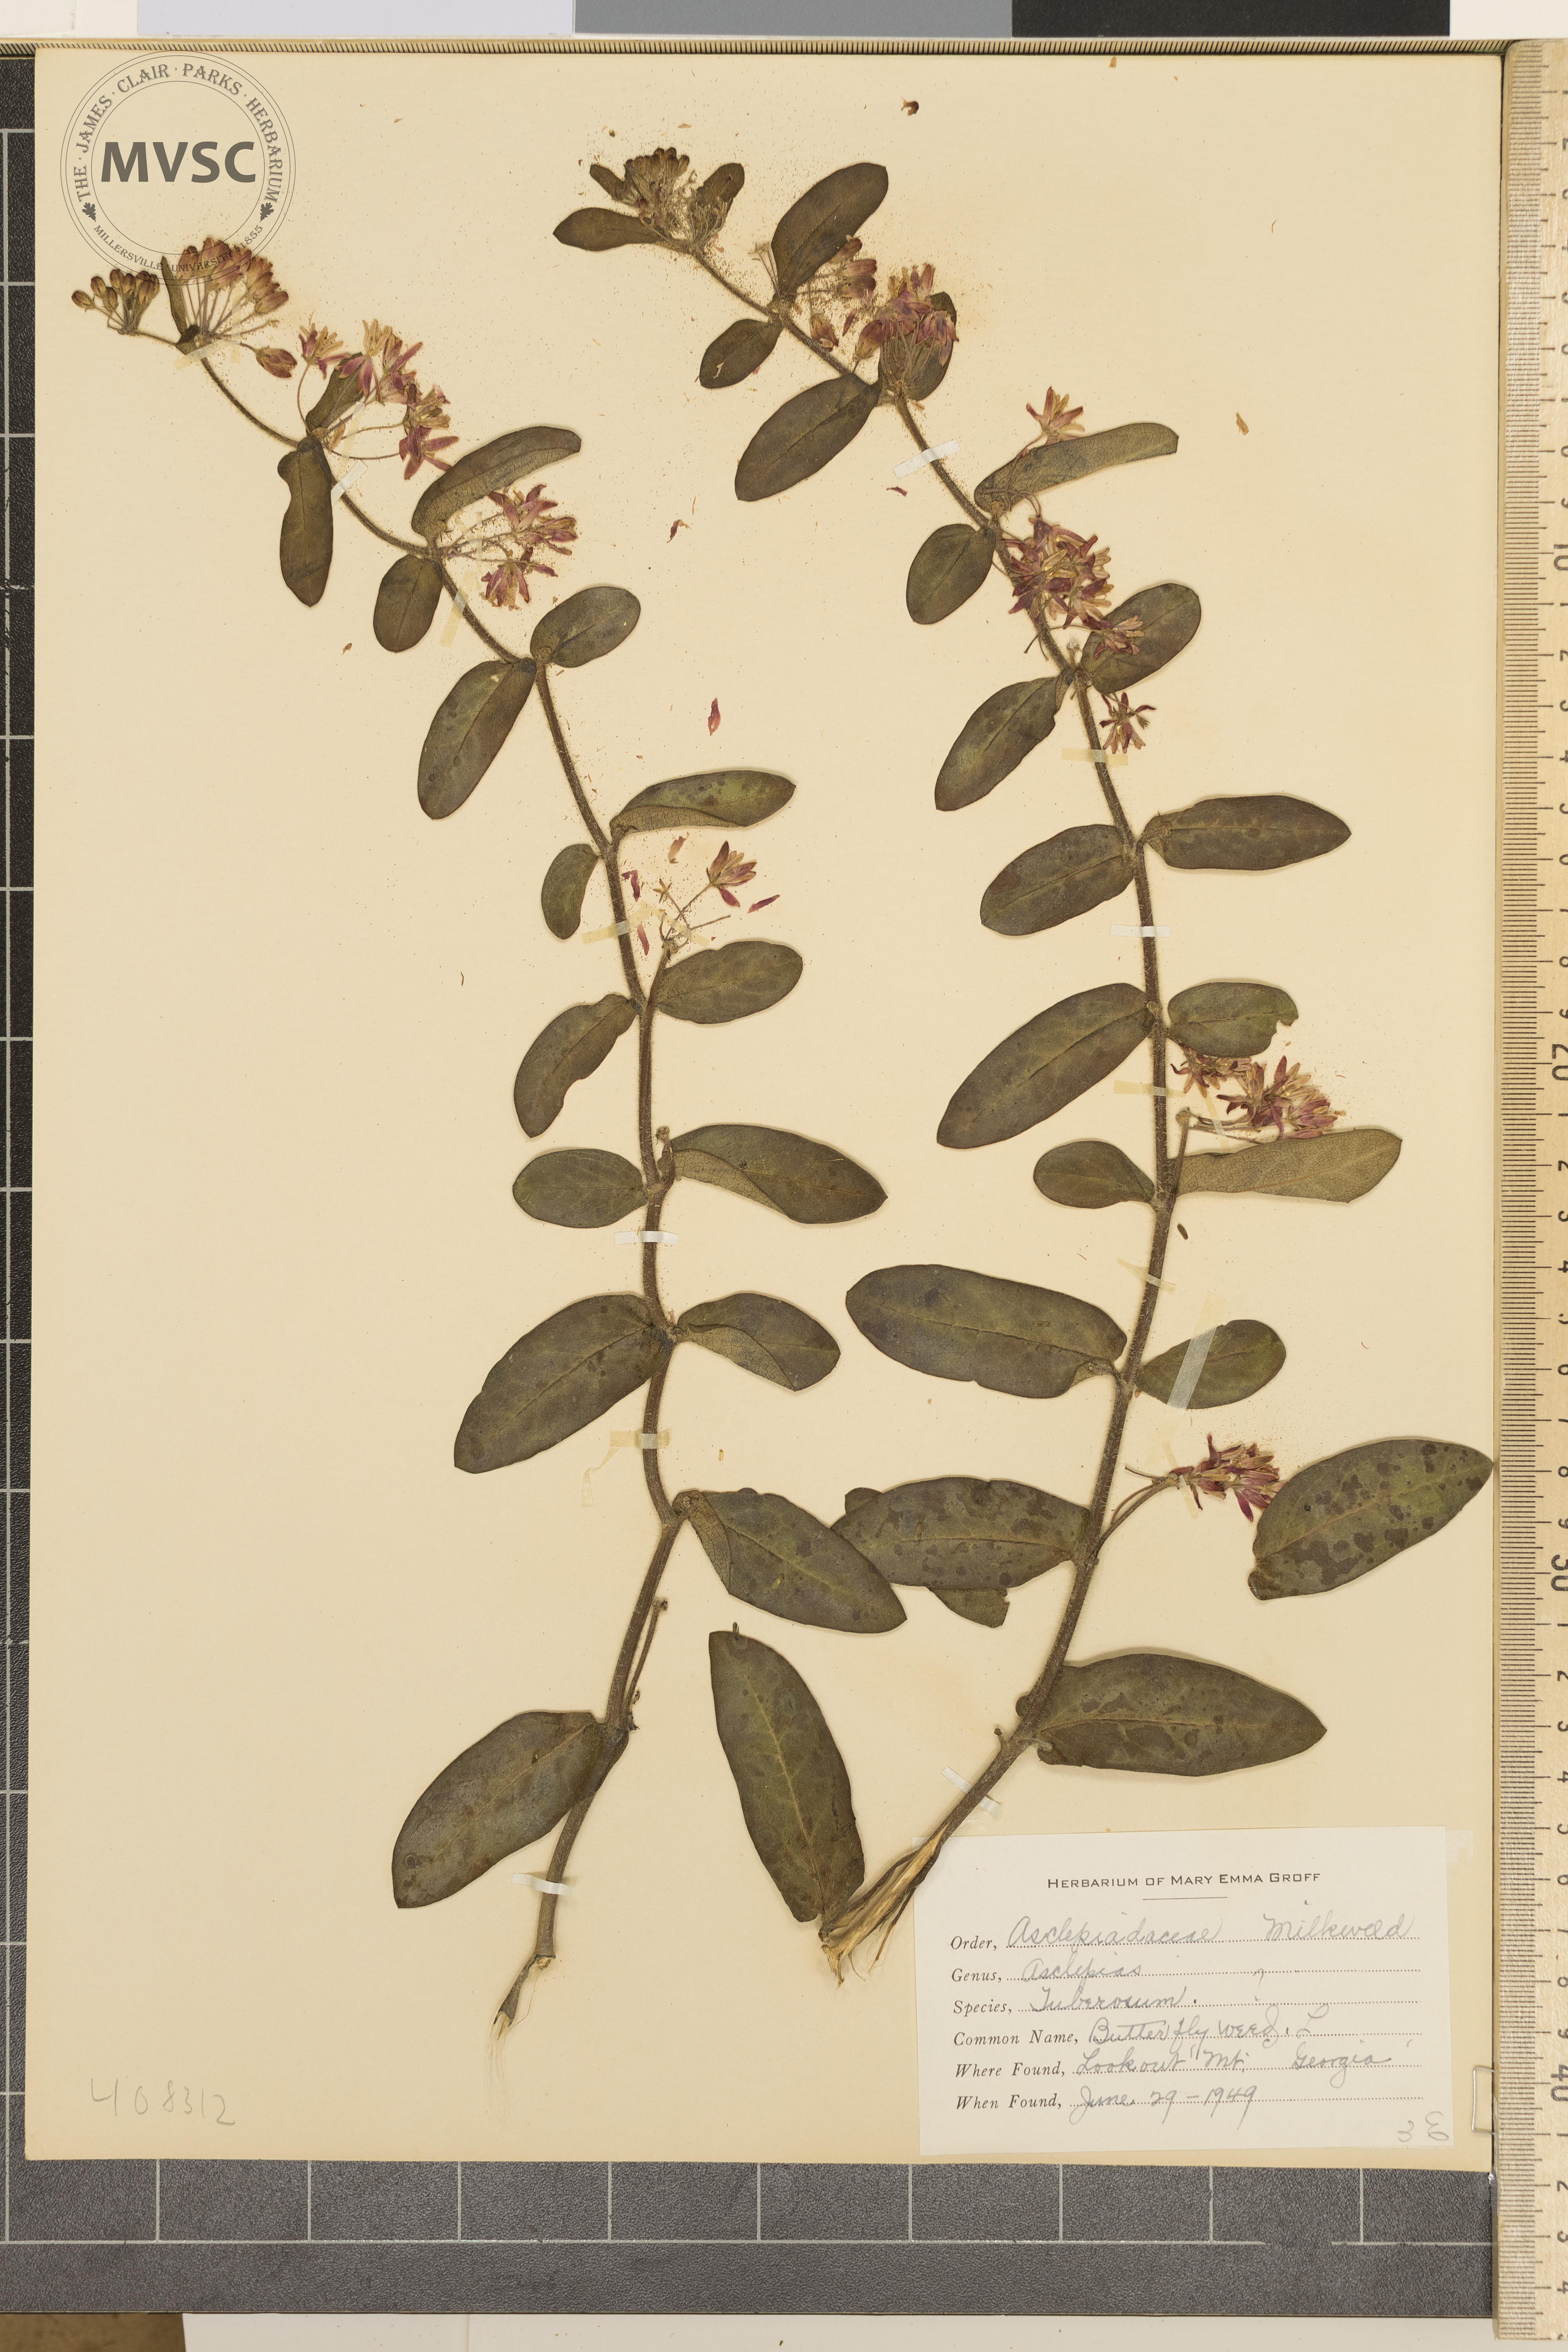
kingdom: Plantae
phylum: Tracheophyta
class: Magnoliopsida
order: Gentianales
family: Apocynaceae
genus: Asclepias
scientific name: Asclepias tuberosa
